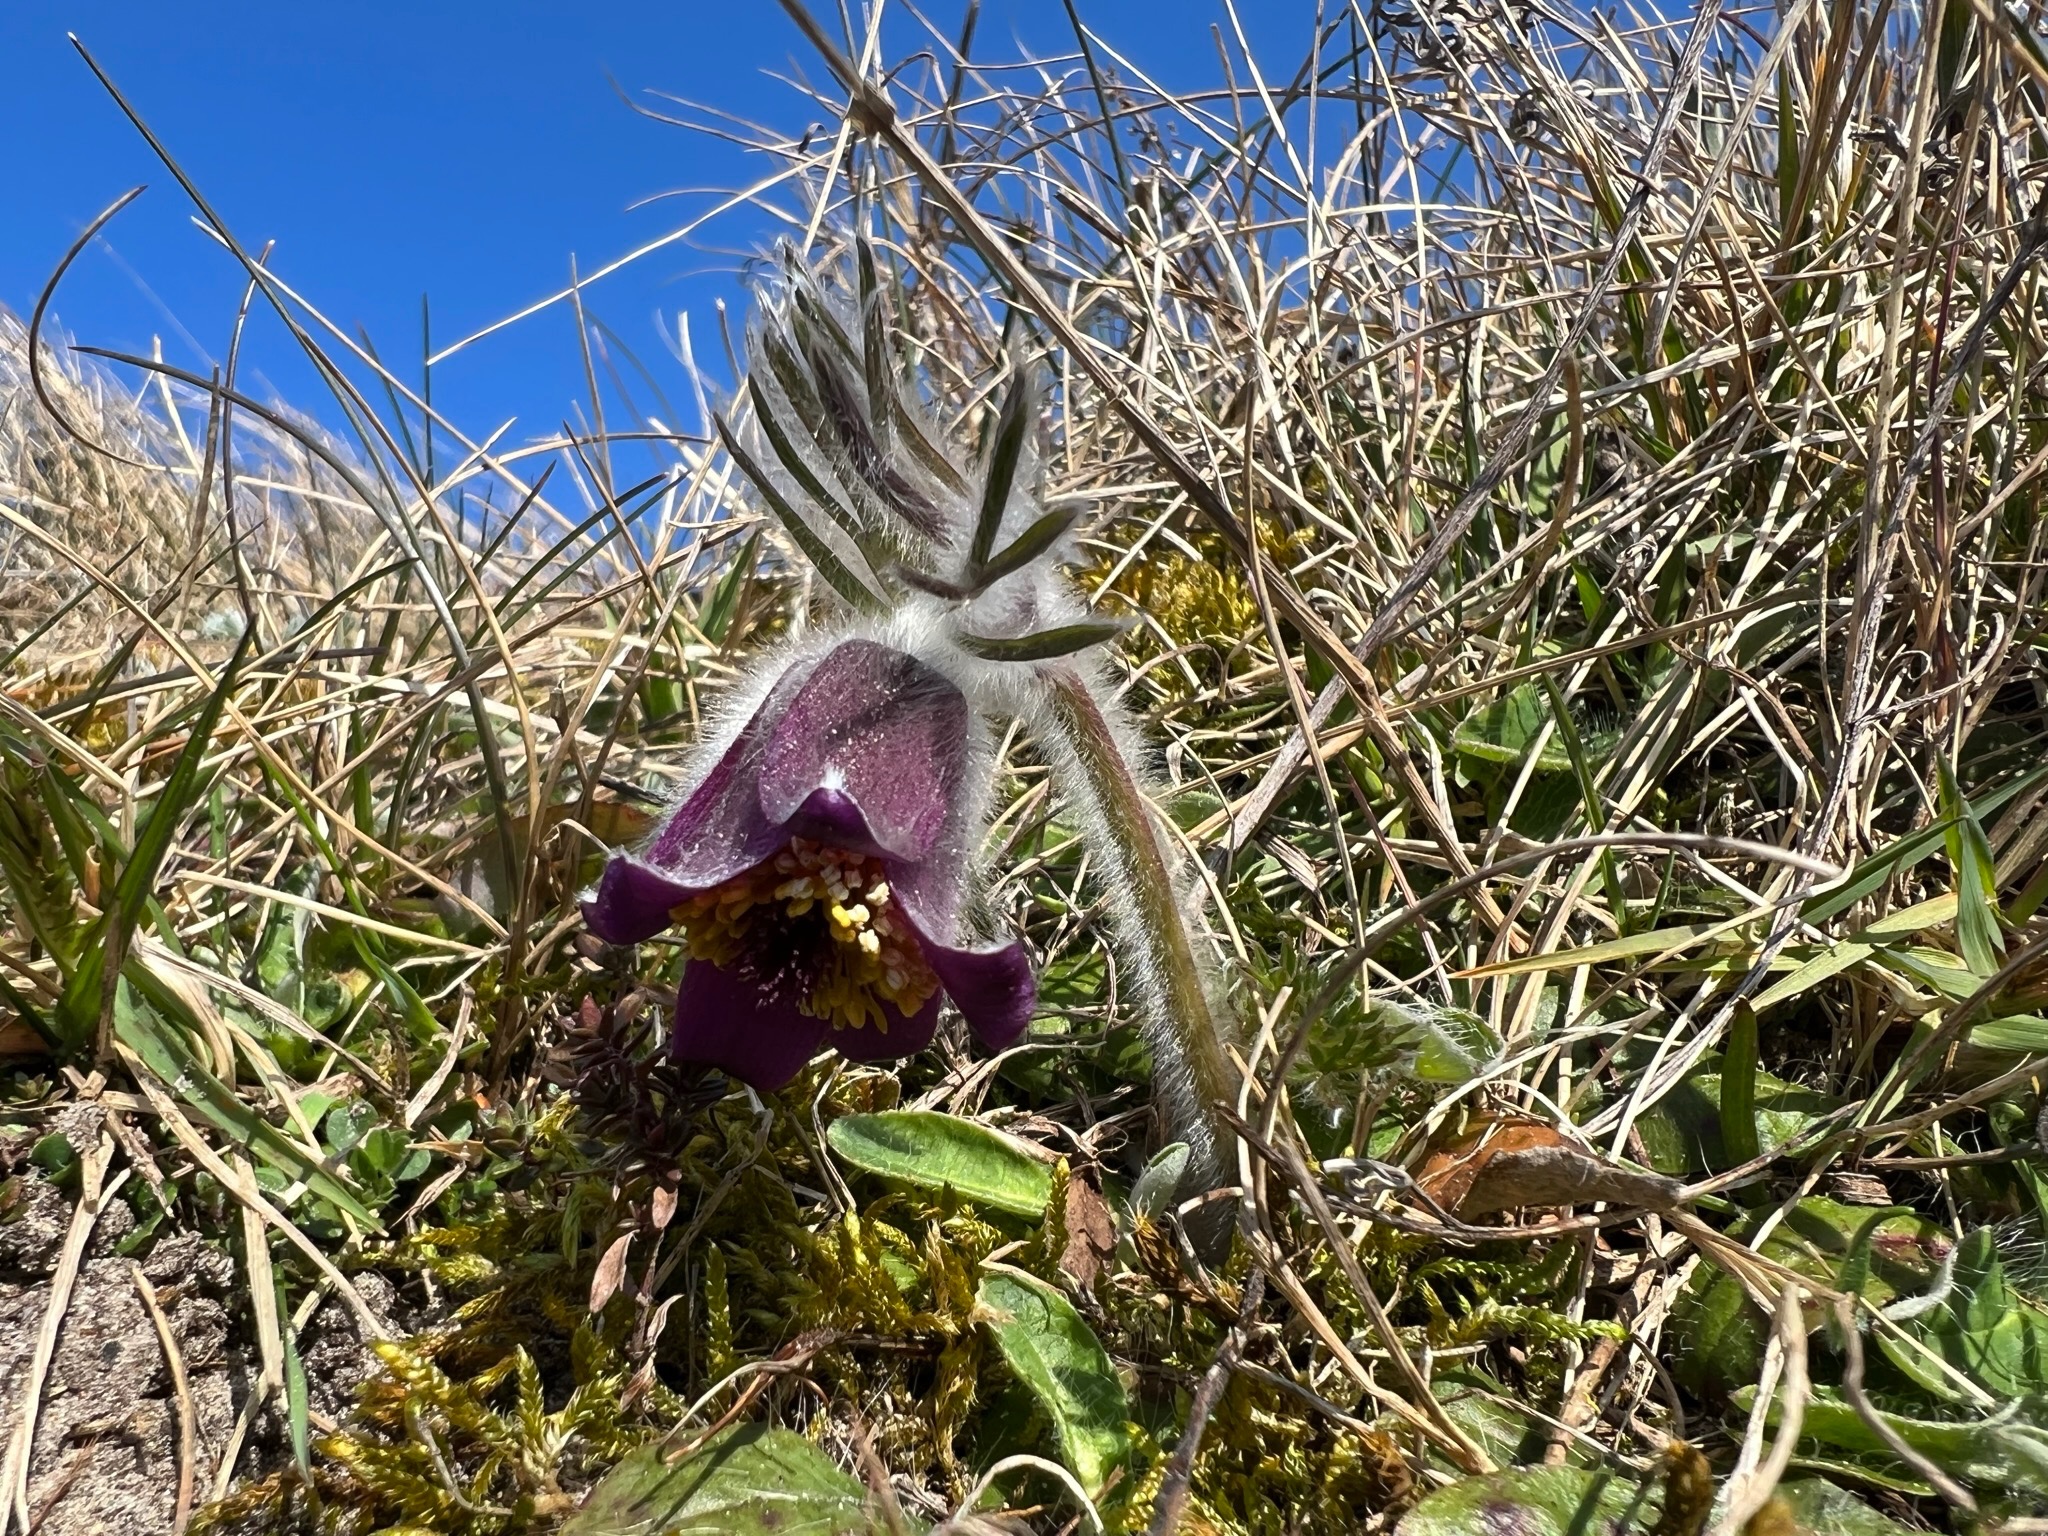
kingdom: Plantae
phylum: Tracheophyta
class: Magnoliopsida
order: Ranunculales
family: Ranunculaceae
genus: Pulsatilla
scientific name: Pulsatilla pratensis
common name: Nikkende kobjælde
